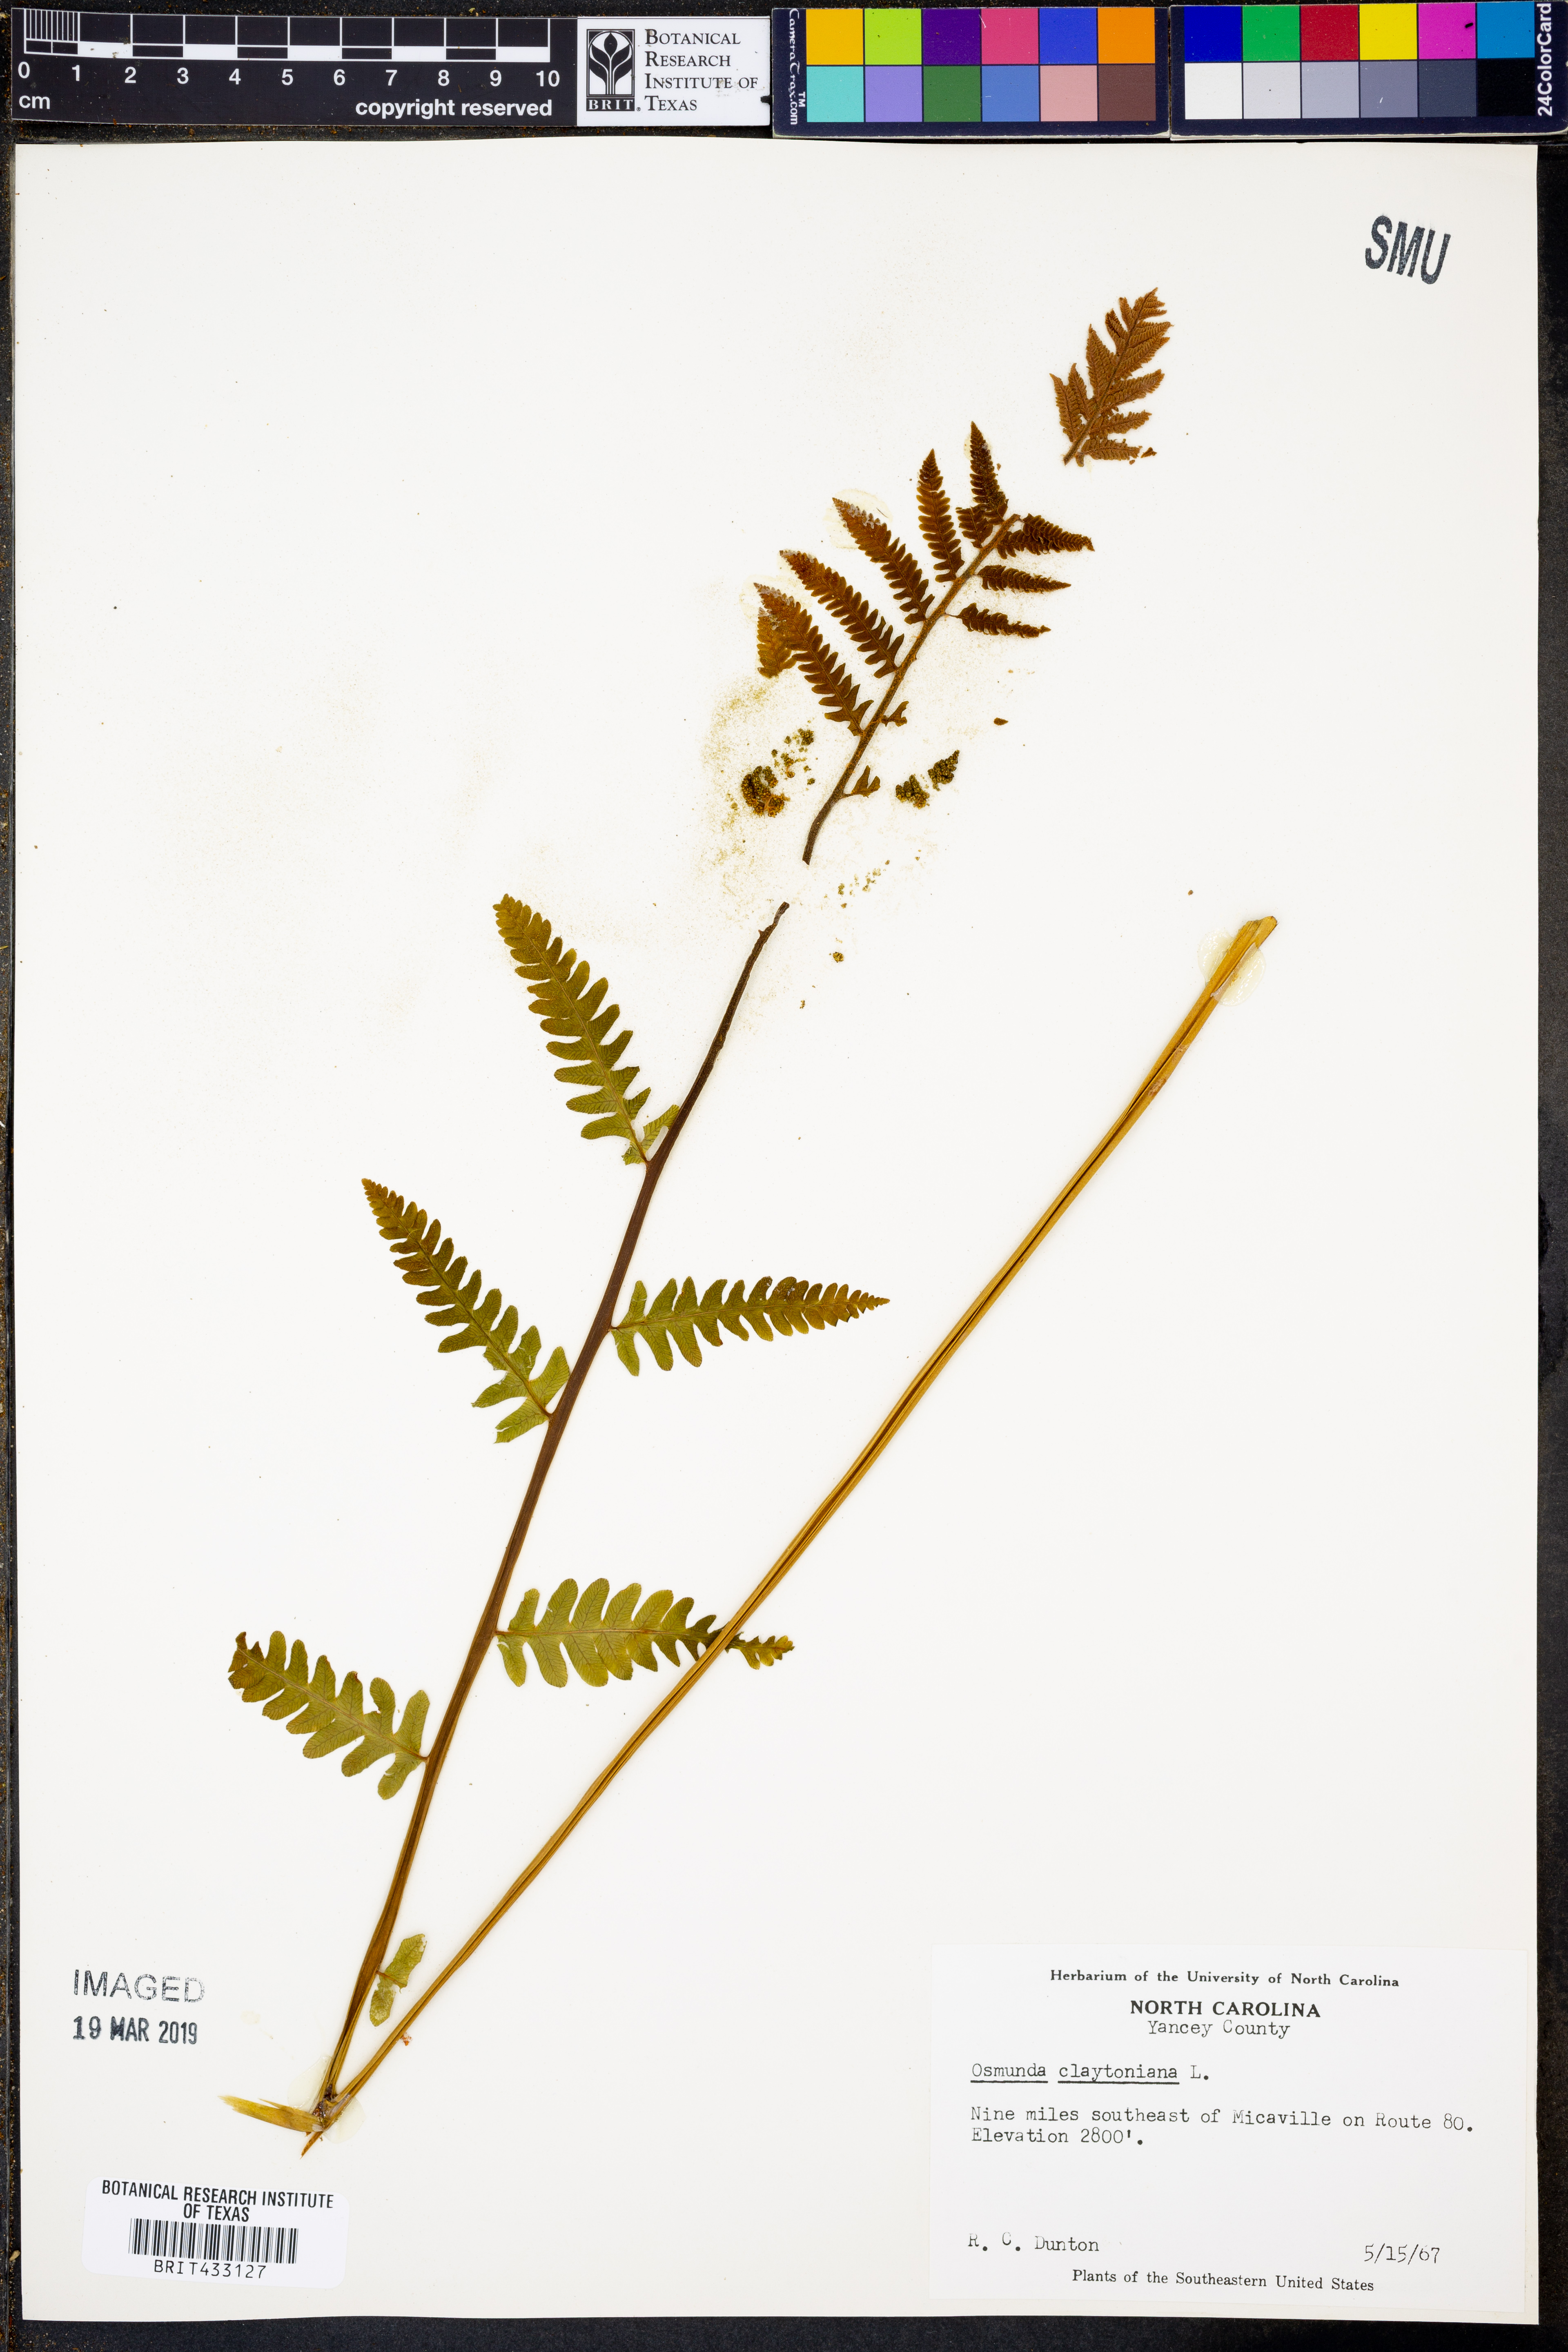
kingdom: Plantae
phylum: Tracheophyta
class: Polypodiopsida
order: Osmundales
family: Osmundaceae
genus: Claytosmunda
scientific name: Claytosmunda claytoniana
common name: Clayton's fern
